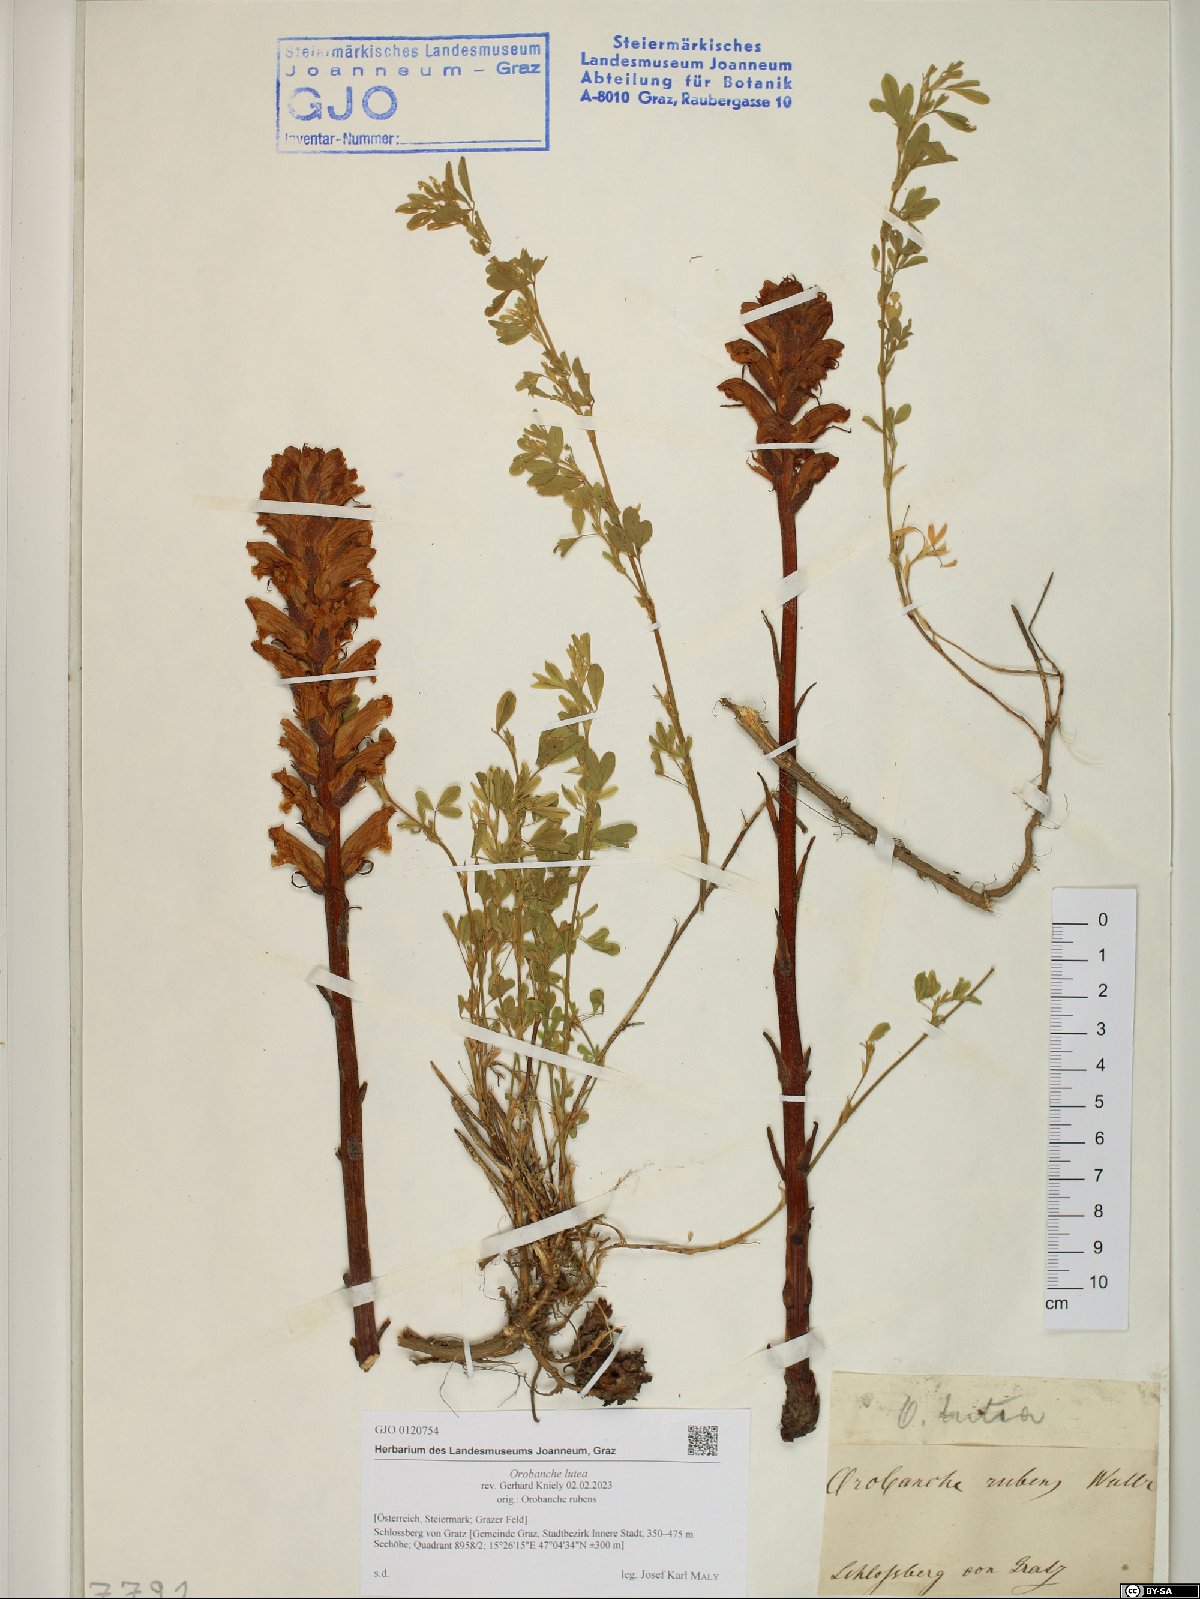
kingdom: Plantae
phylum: Tracheophyta
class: Magnoliopsida
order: Lamiales
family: Orobanchaceae
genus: Orobanche
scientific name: Orobanche lutea
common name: Yellow broomrape
